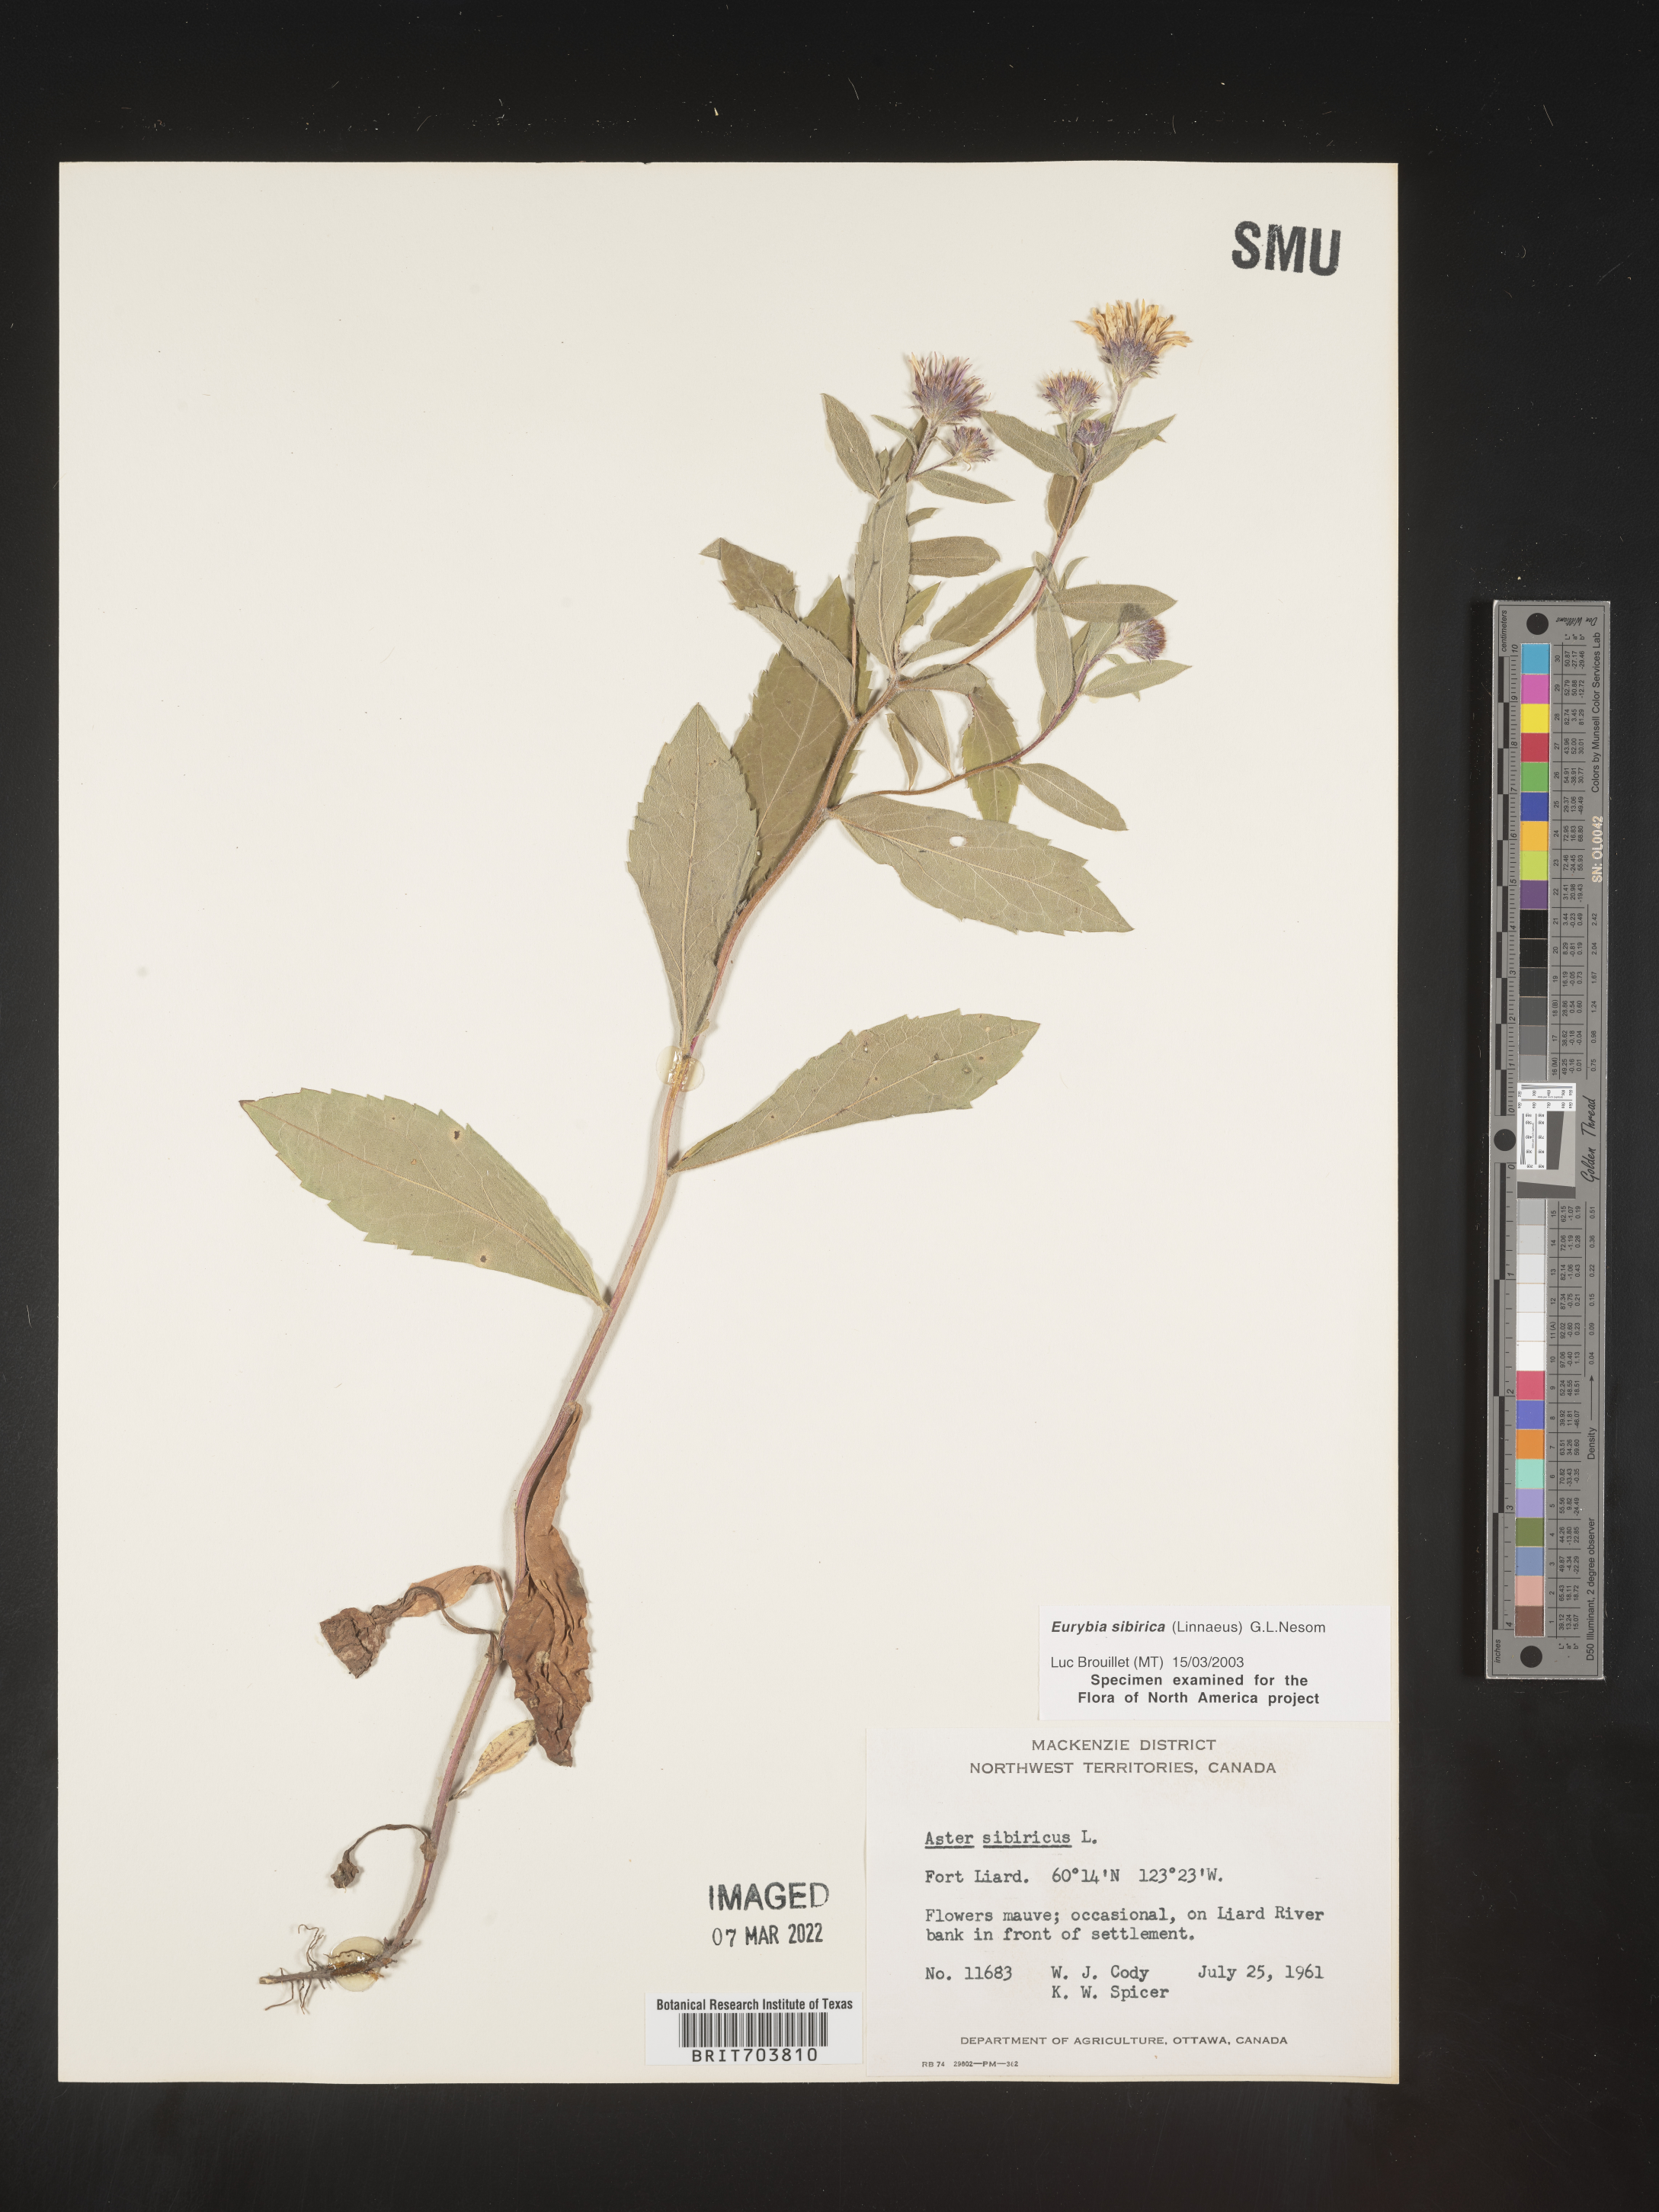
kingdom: Plantae
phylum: Tracheophyta
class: Magnoliopsida
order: Asterales
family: Asteraceae
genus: Eurybia
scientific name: Eurybia sibirica
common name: Arctic aster
